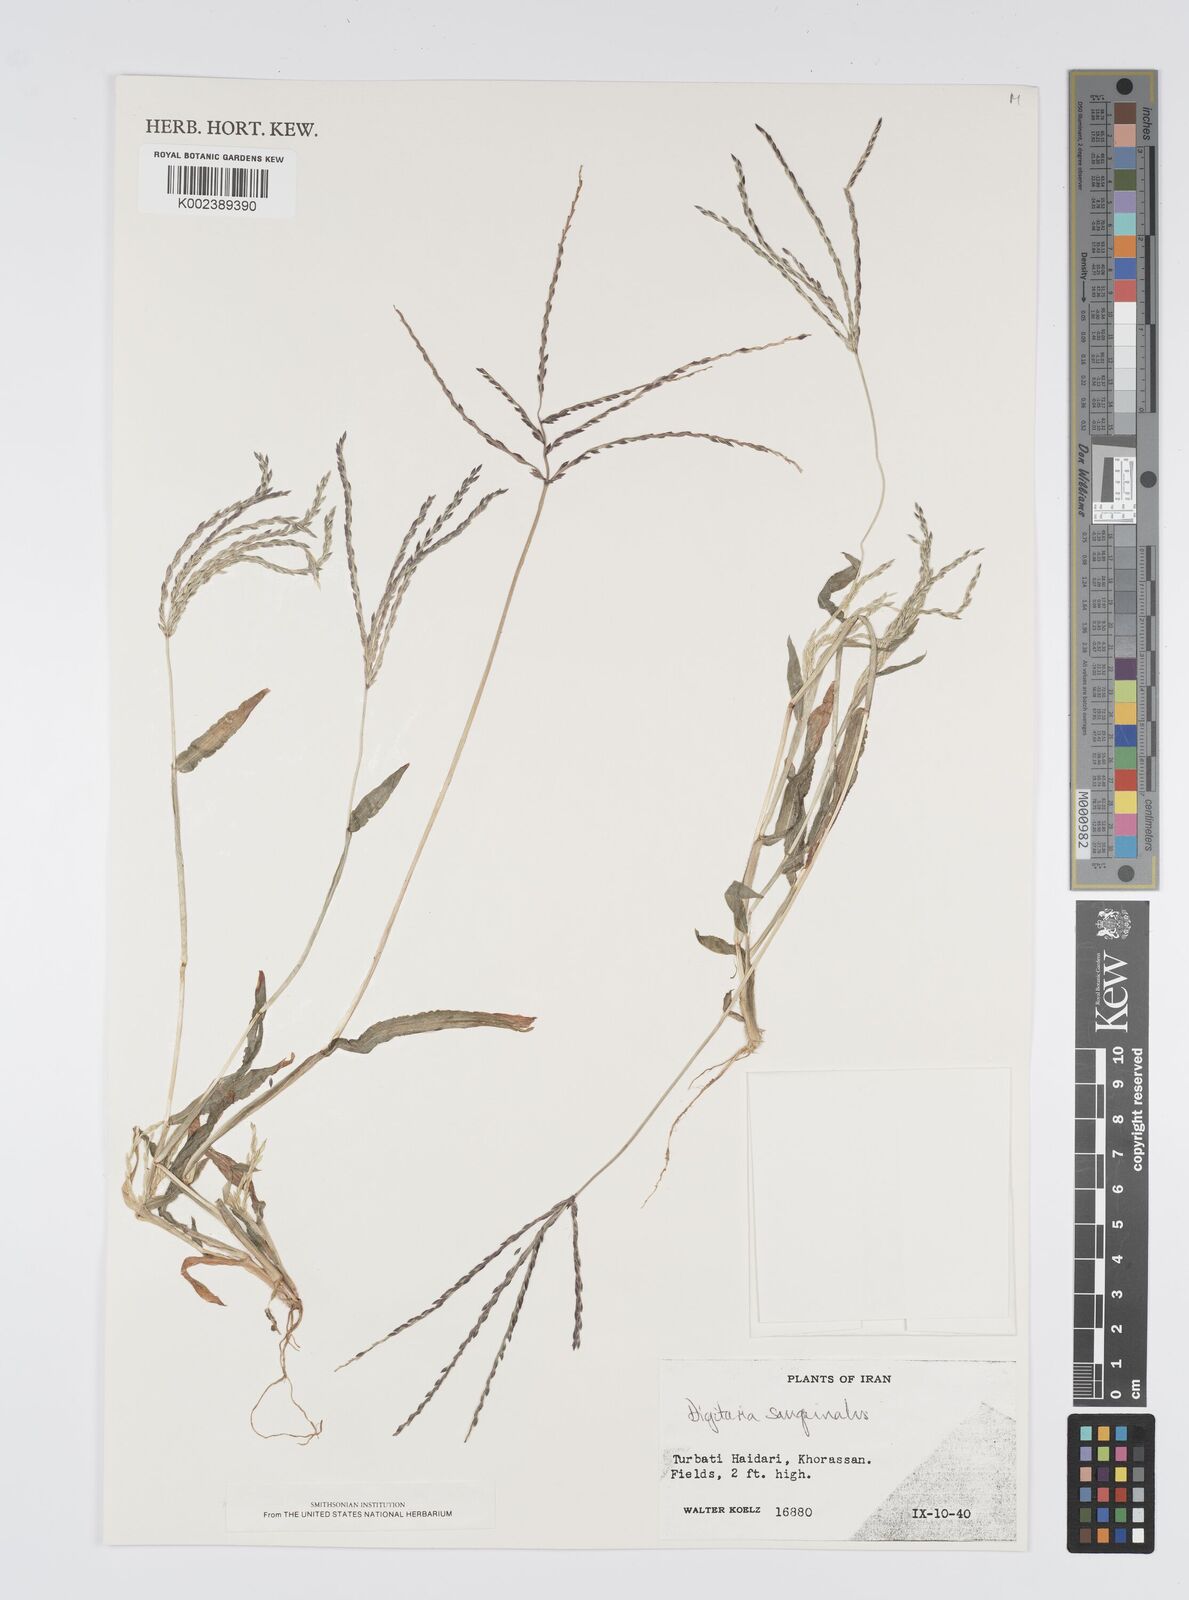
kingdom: Plantae
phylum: Tracheophyta
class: Liliopsida
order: Poales
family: Poaceae
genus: Digitaria
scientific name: Digitaria sanguinalis
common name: Hairy crabgrass
